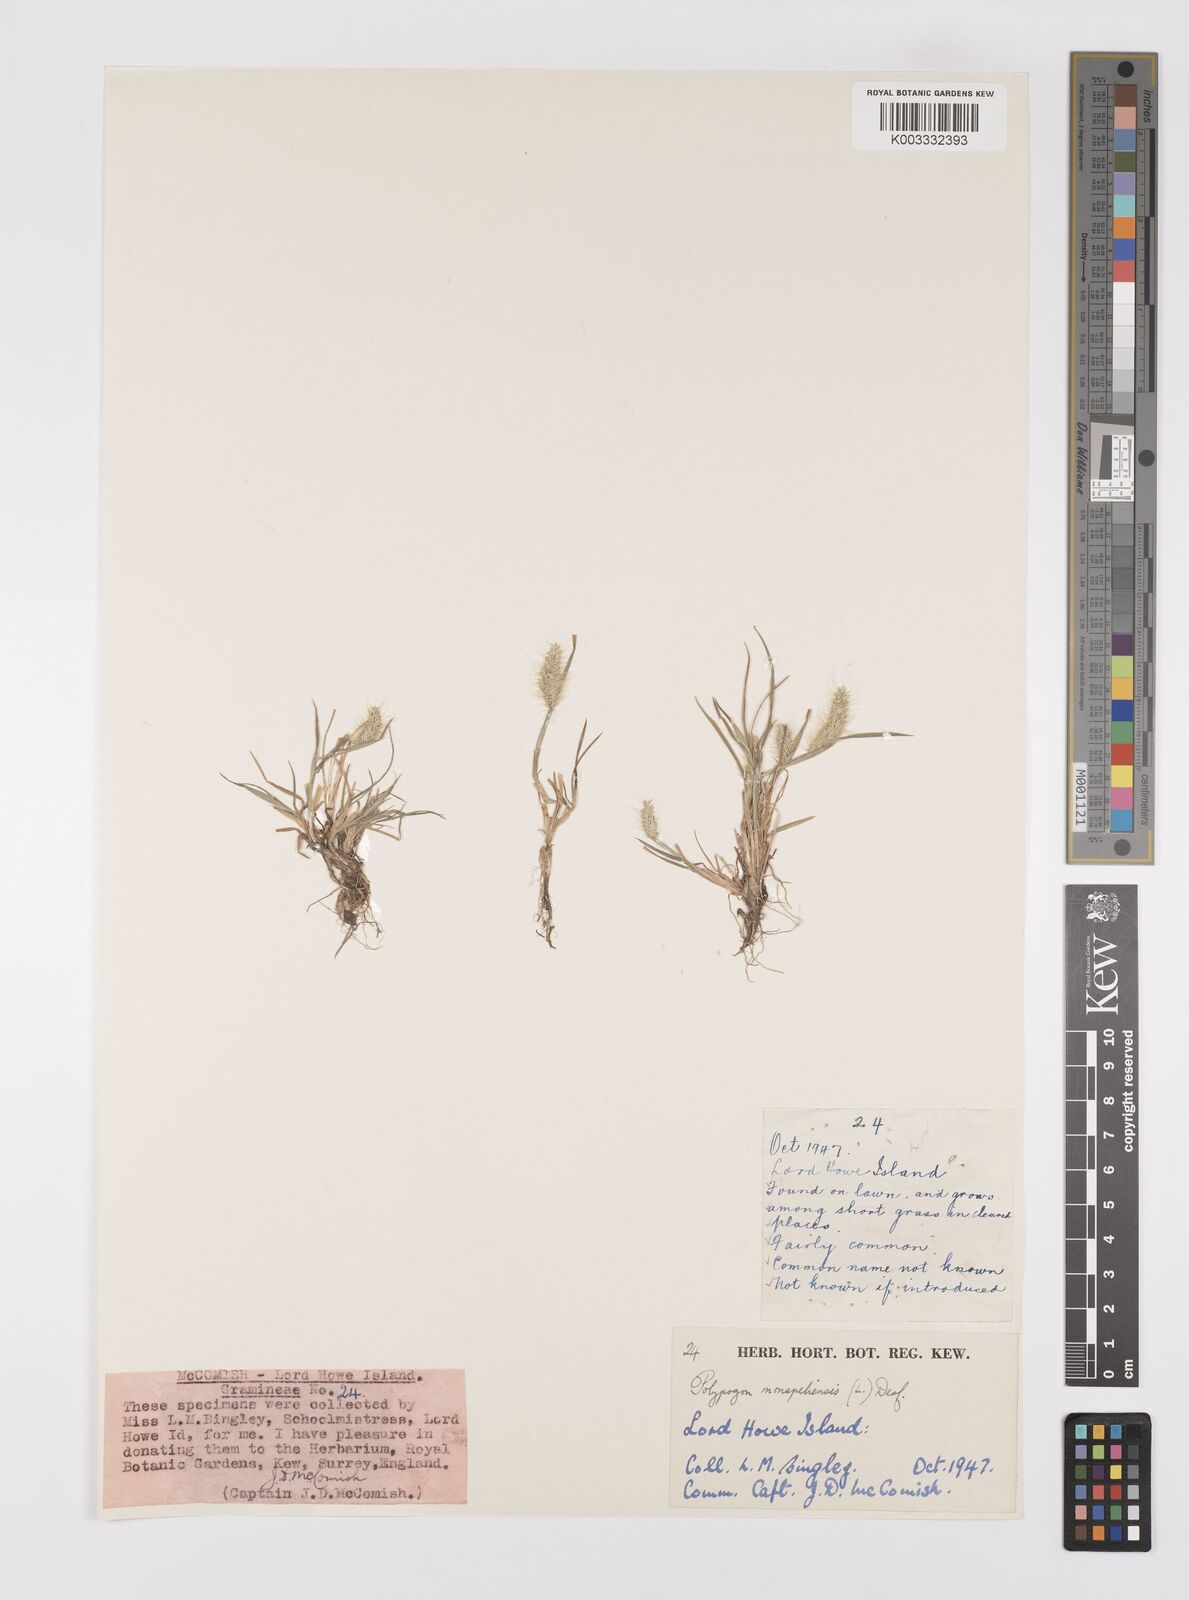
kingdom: Plantae
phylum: Tracheophyta
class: Liliopsida
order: Poales
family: Poaceae
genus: Polypogon
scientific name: Polypogon monspeliensis
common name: Annual rabbitsfoot grass
